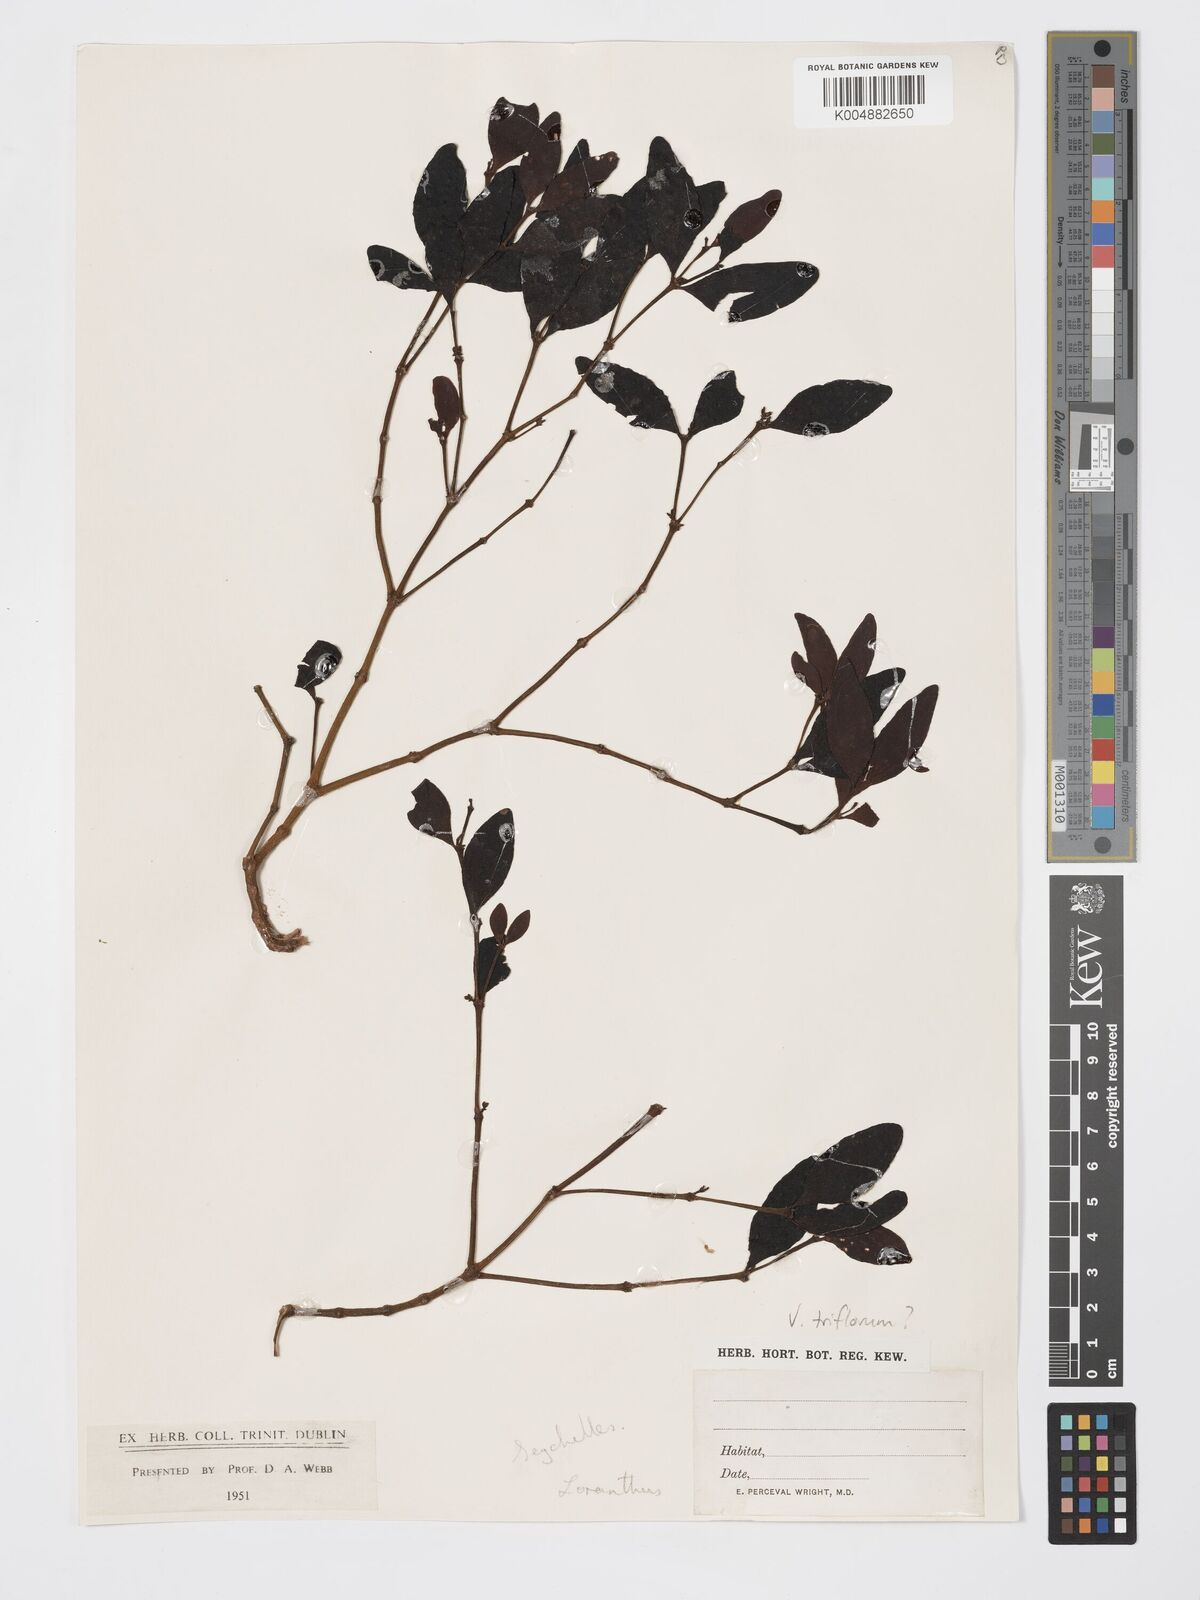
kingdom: Plantae
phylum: Tracheophyta
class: Magnoliopsida
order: Santalales
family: Viscaceae
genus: Viscum
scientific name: Viscum triflorum
